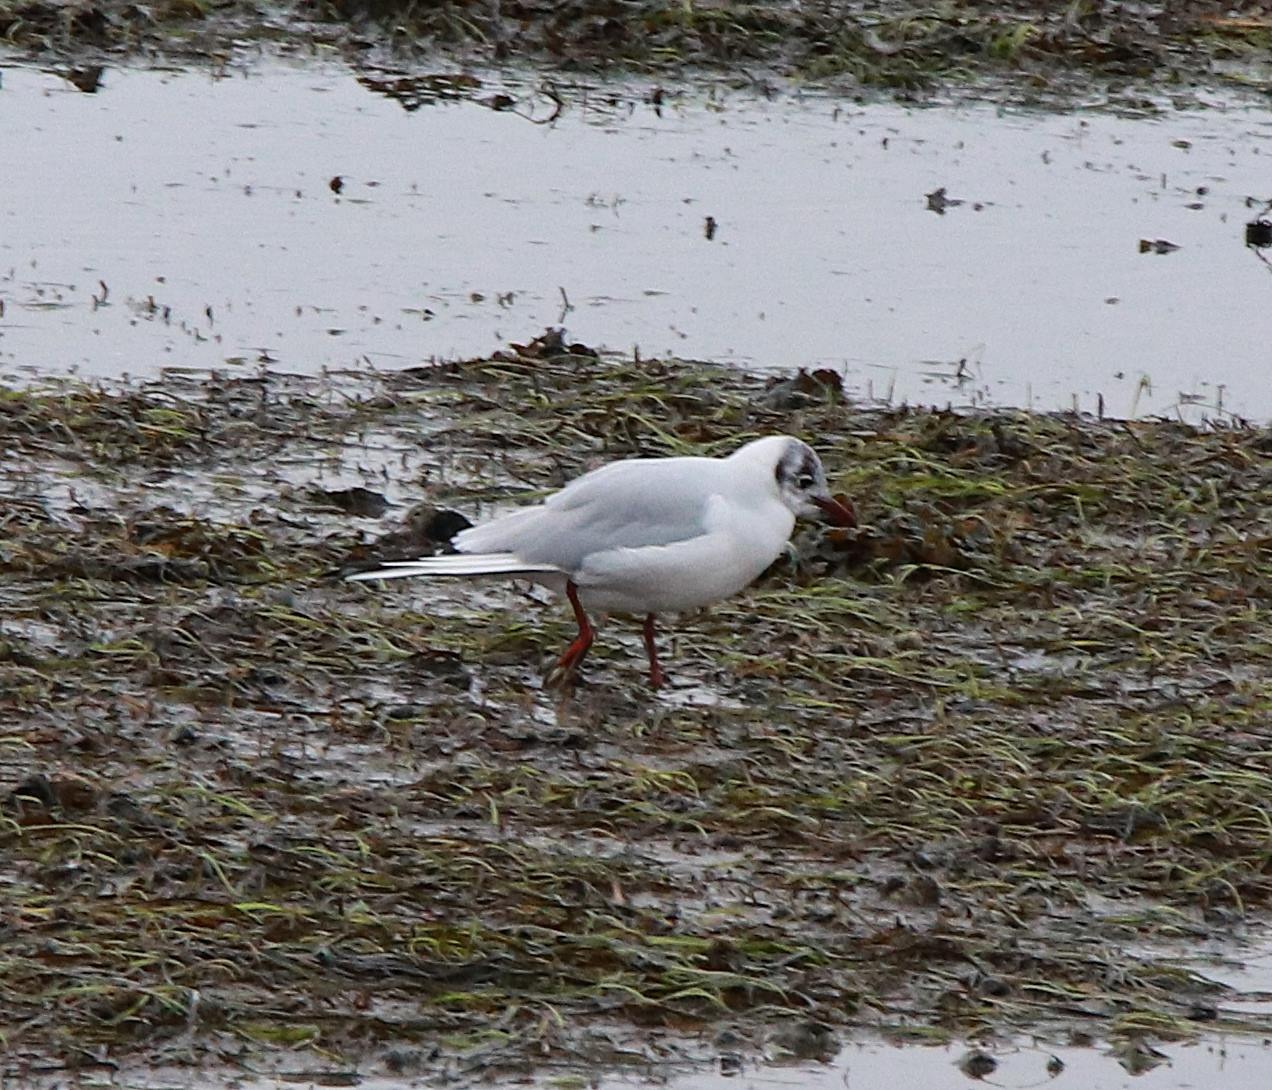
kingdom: Animalia
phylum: Chordata
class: Aves
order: Charadriiformes
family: Laridae
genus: Chroicocephalus
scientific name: Chroicocephalus ridibundus
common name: Hættemåge
